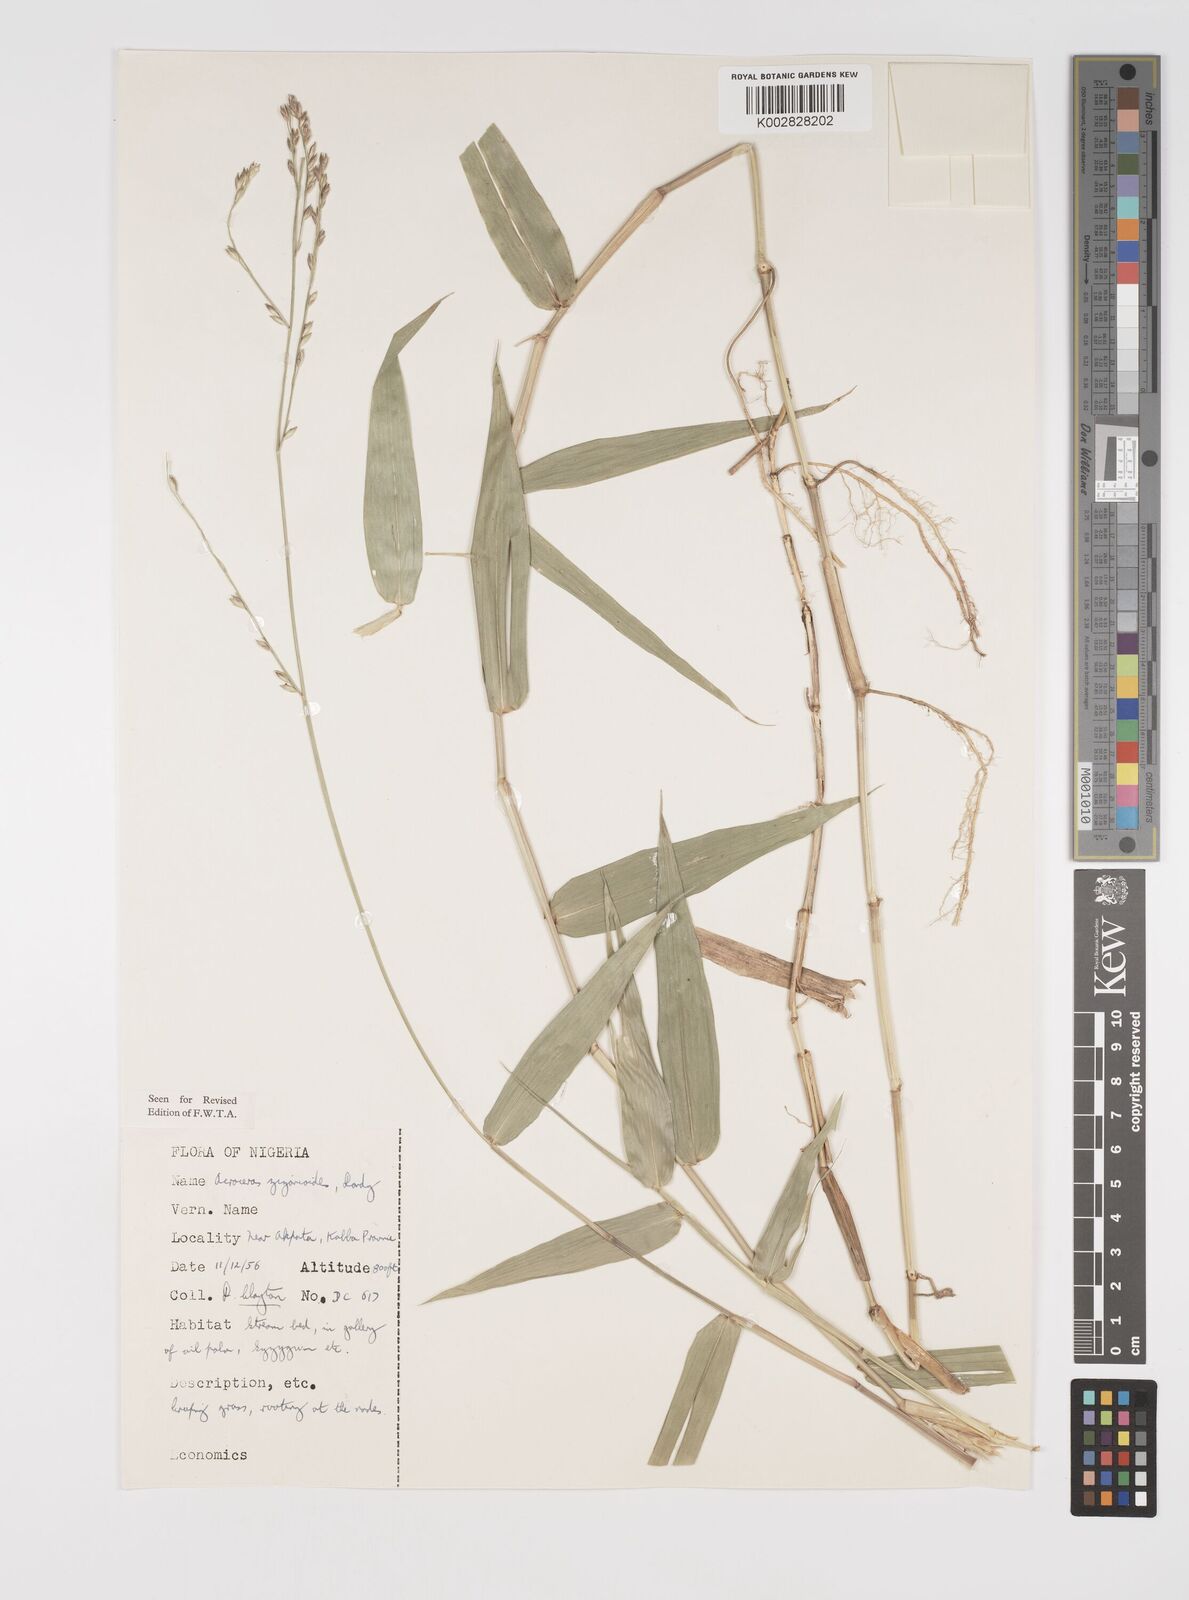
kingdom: Plantae
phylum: Tracheophyta
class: Liliopsida
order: Poales
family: Poaceae
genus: Acroceras
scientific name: Acroceras zizanioides
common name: Oat grass
